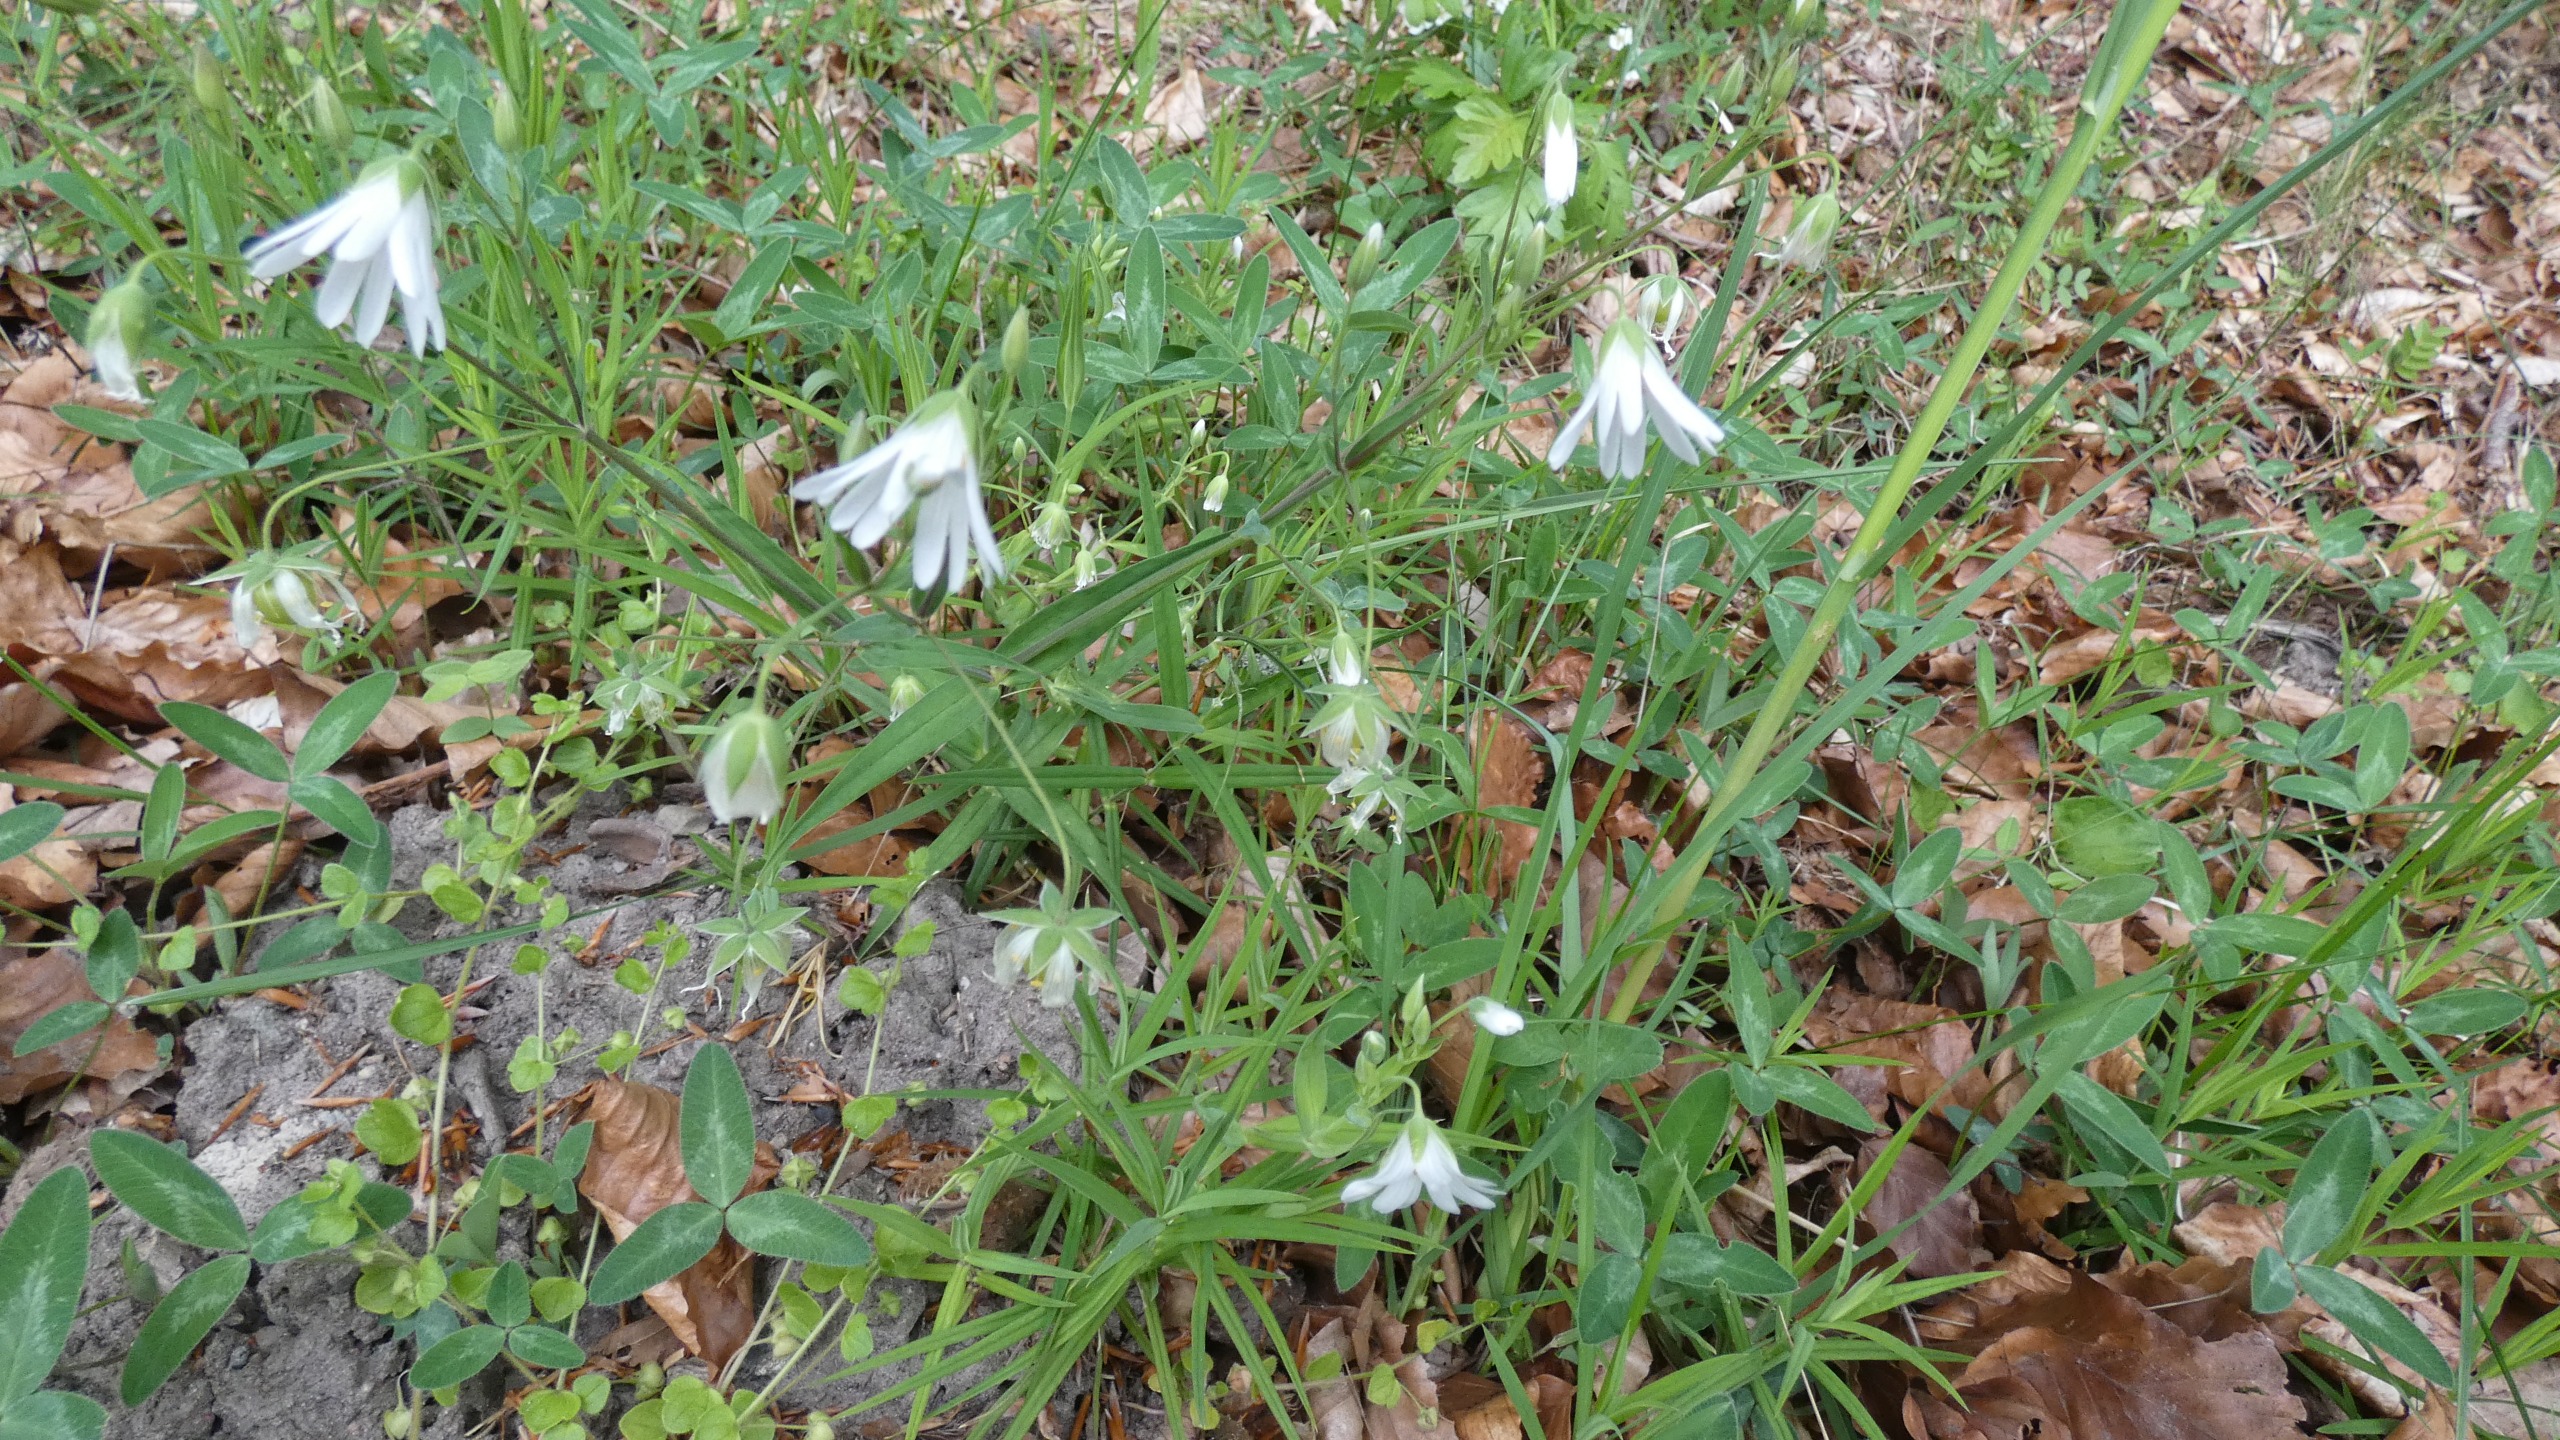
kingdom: Plantae
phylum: Tracheophyta
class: Magnoliopsida
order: Caryophyllales
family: Caryophyllaceae
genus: Rabelera
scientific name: Rabelera holostea
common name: Stor fladstjerne
